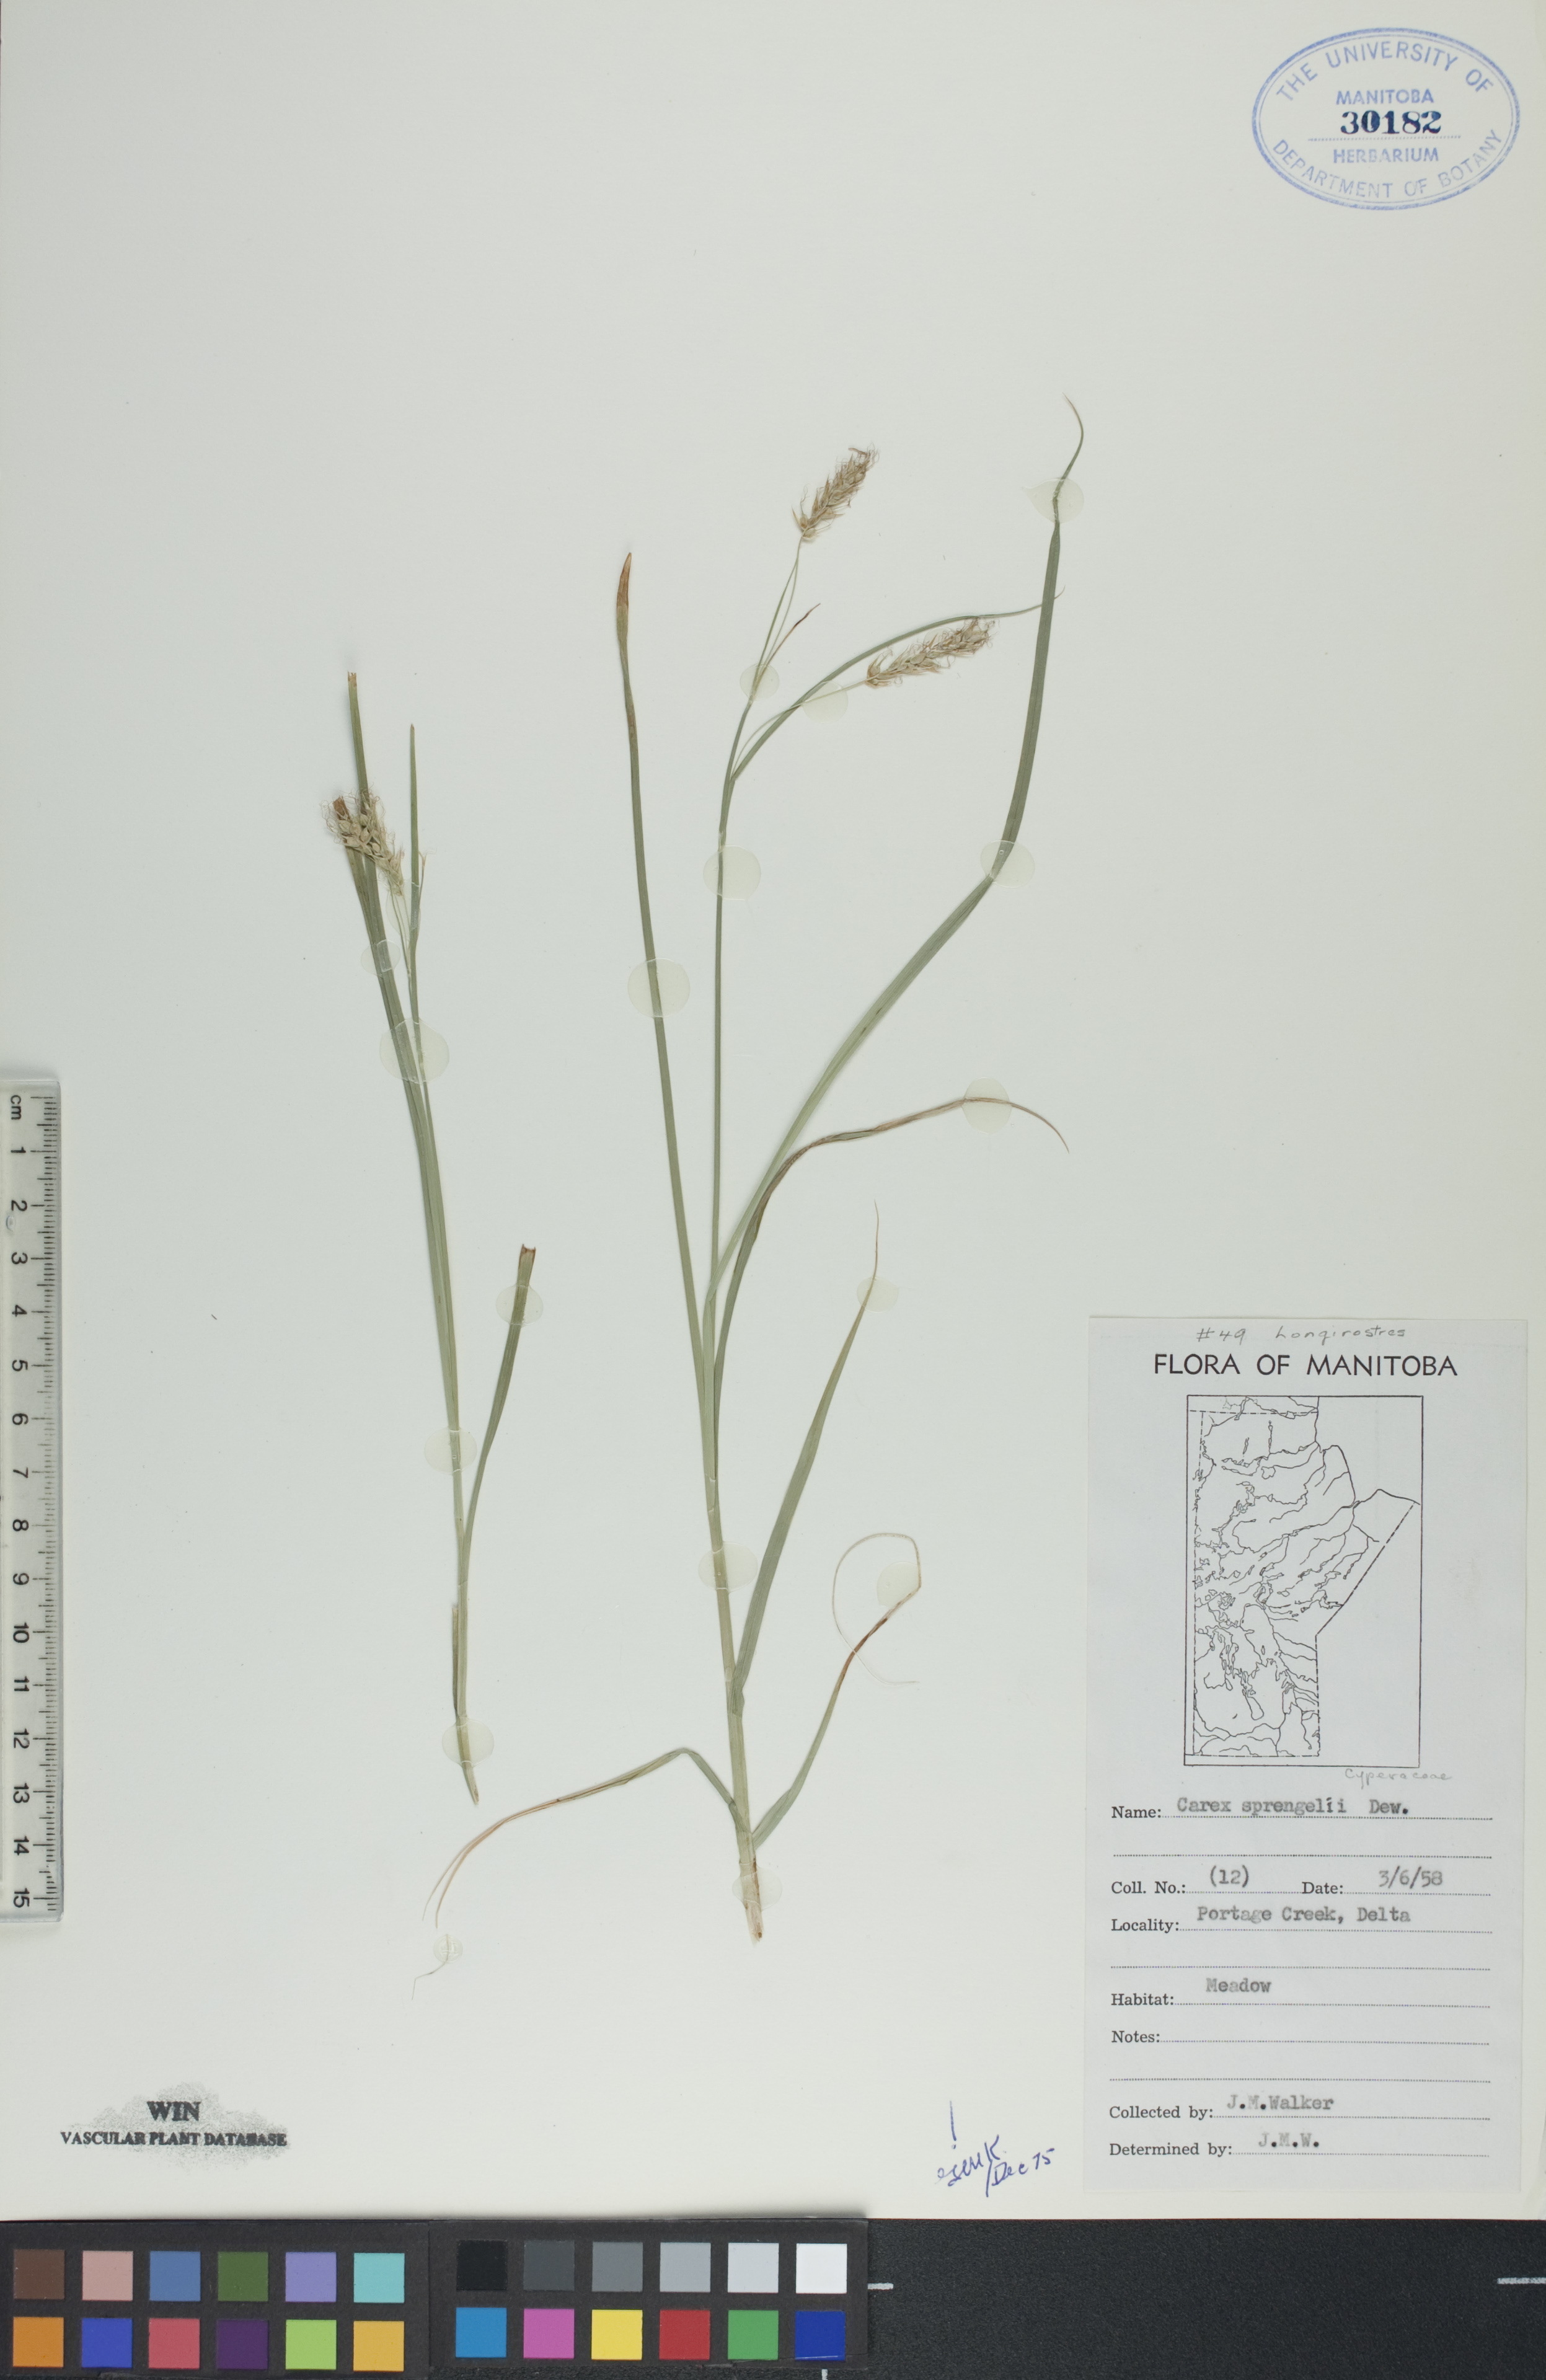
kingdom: Plantae
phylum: Tracheophyta
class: Liliopsida
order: Poales
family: Cyperaceae
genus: Carex
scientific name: Carex sprengelii
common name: Long-beaked sedge
